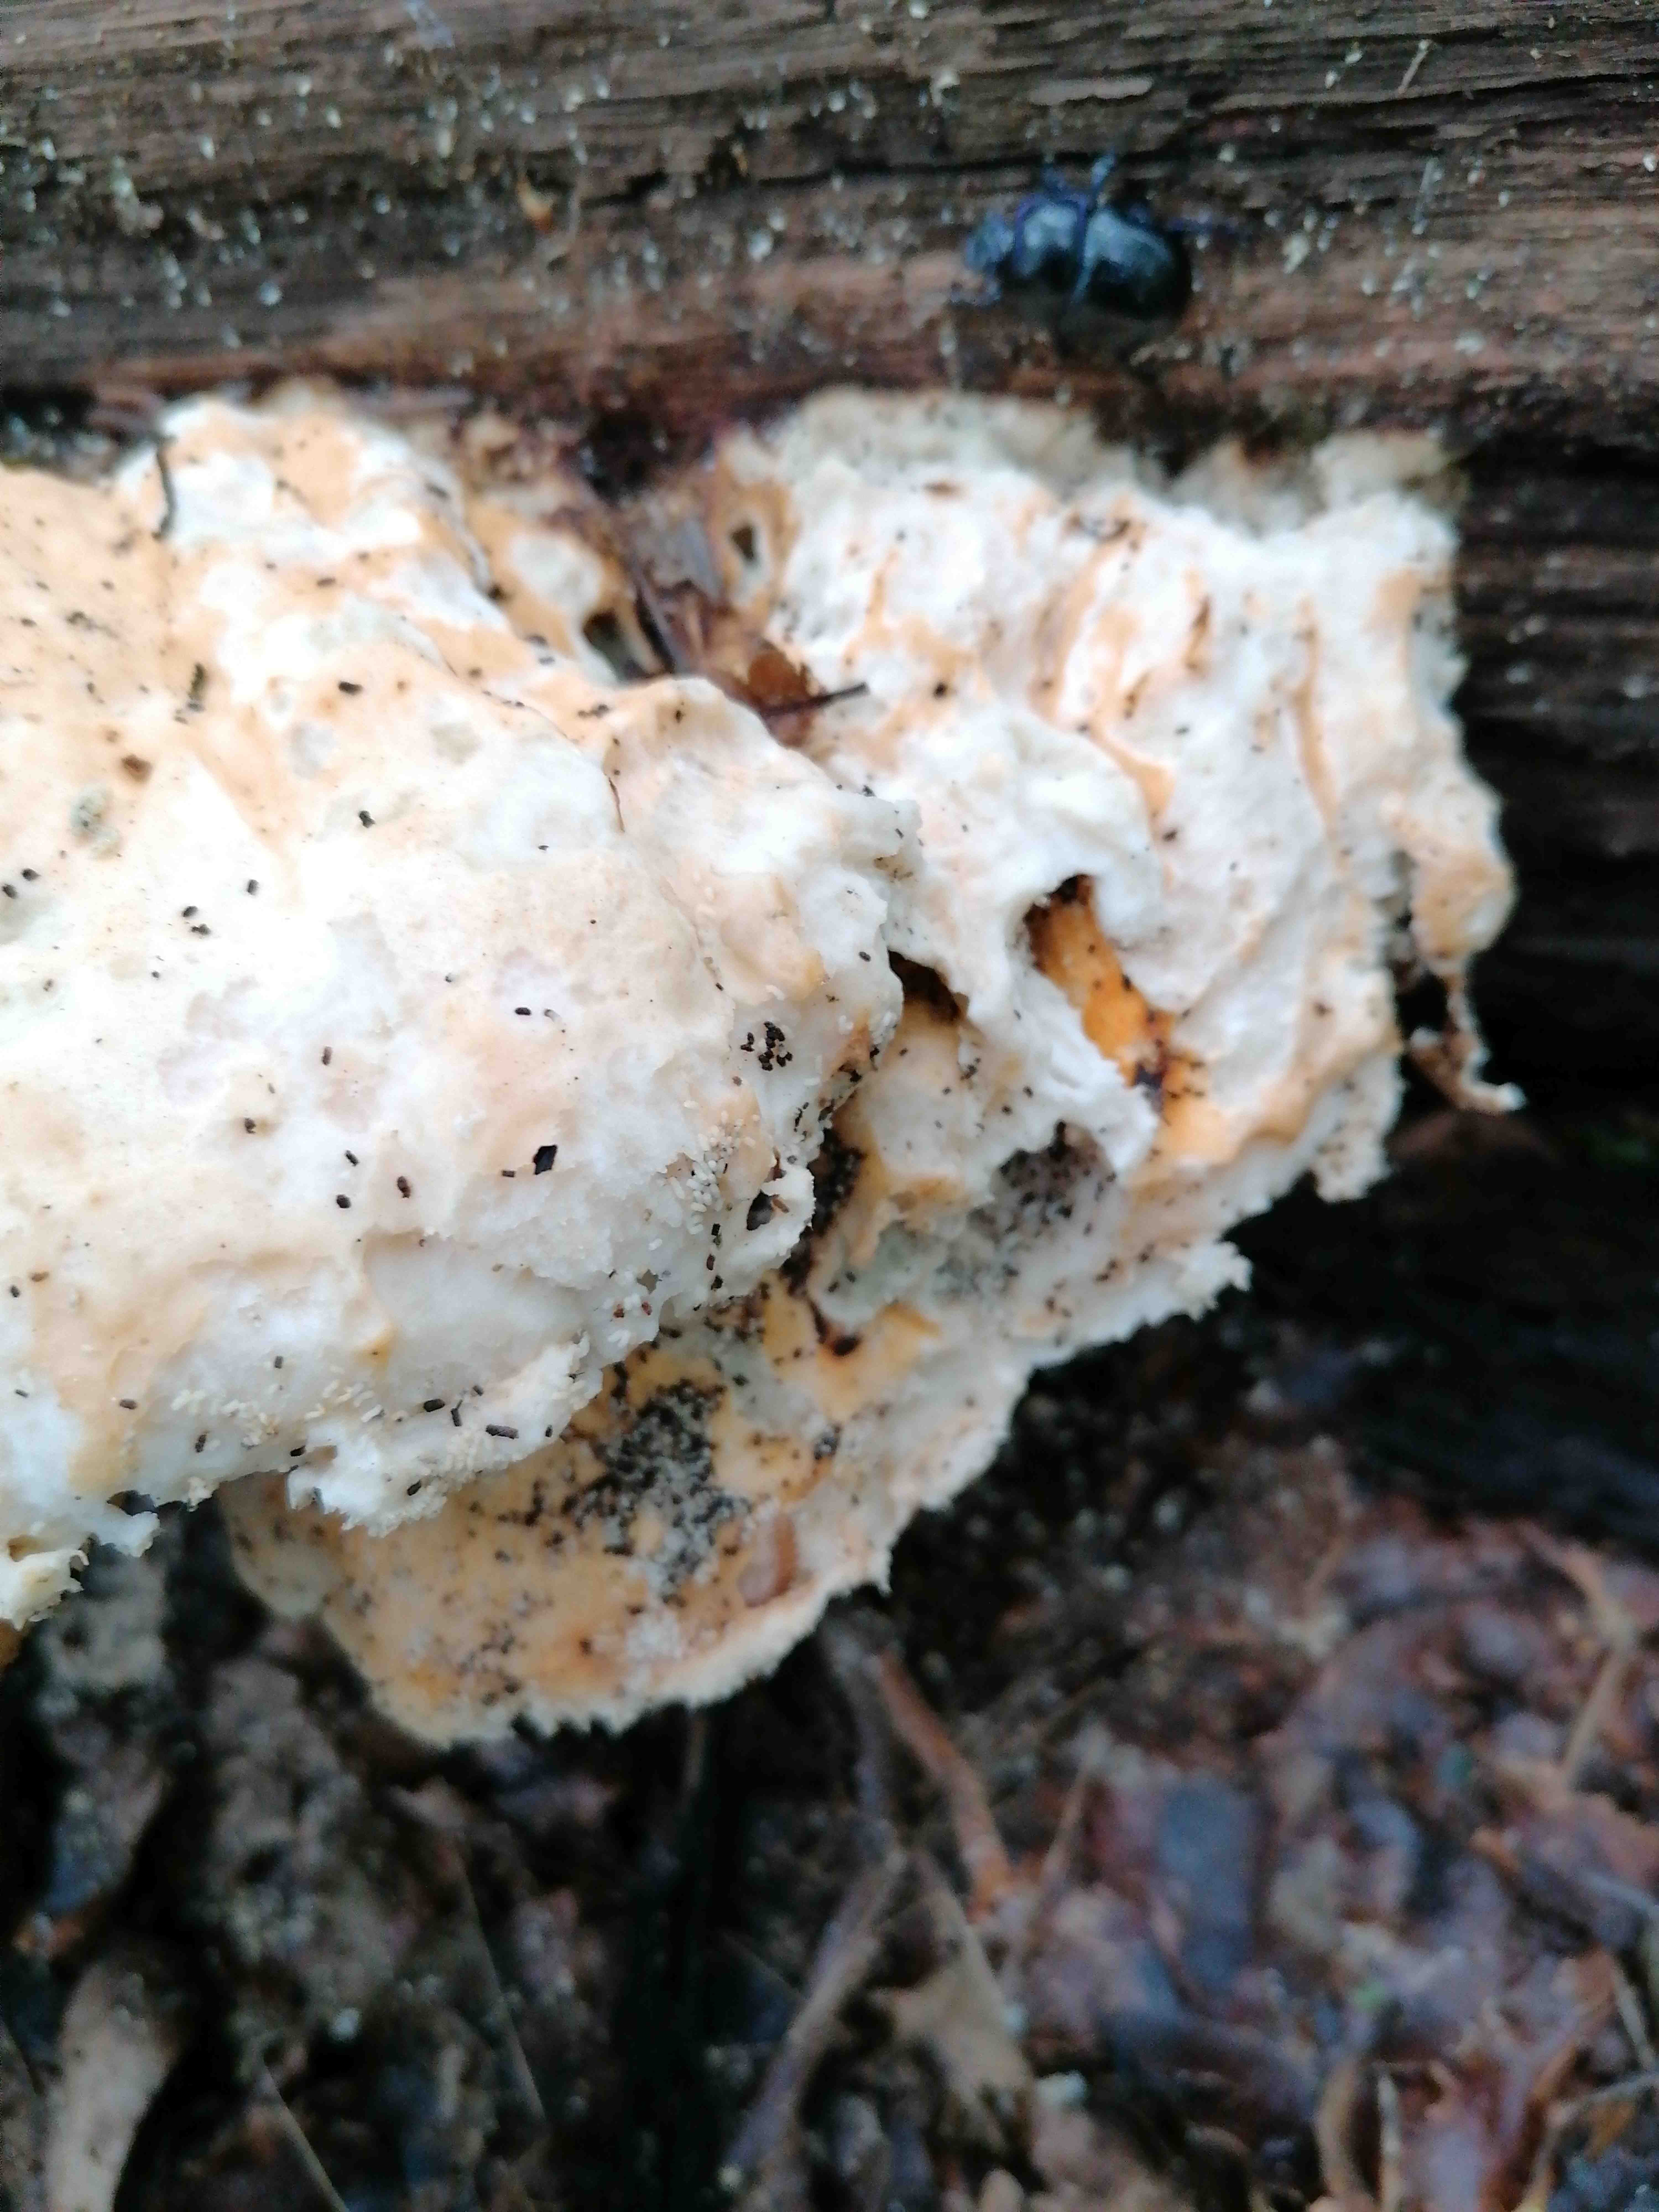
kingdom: Fungi
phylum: Basidiomycota
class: Agaricomycetes
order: Polyporales
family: Laetiporaceae
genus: Laetiporus
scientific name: Laetiporus sulphureus
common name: svovlporesvamp
